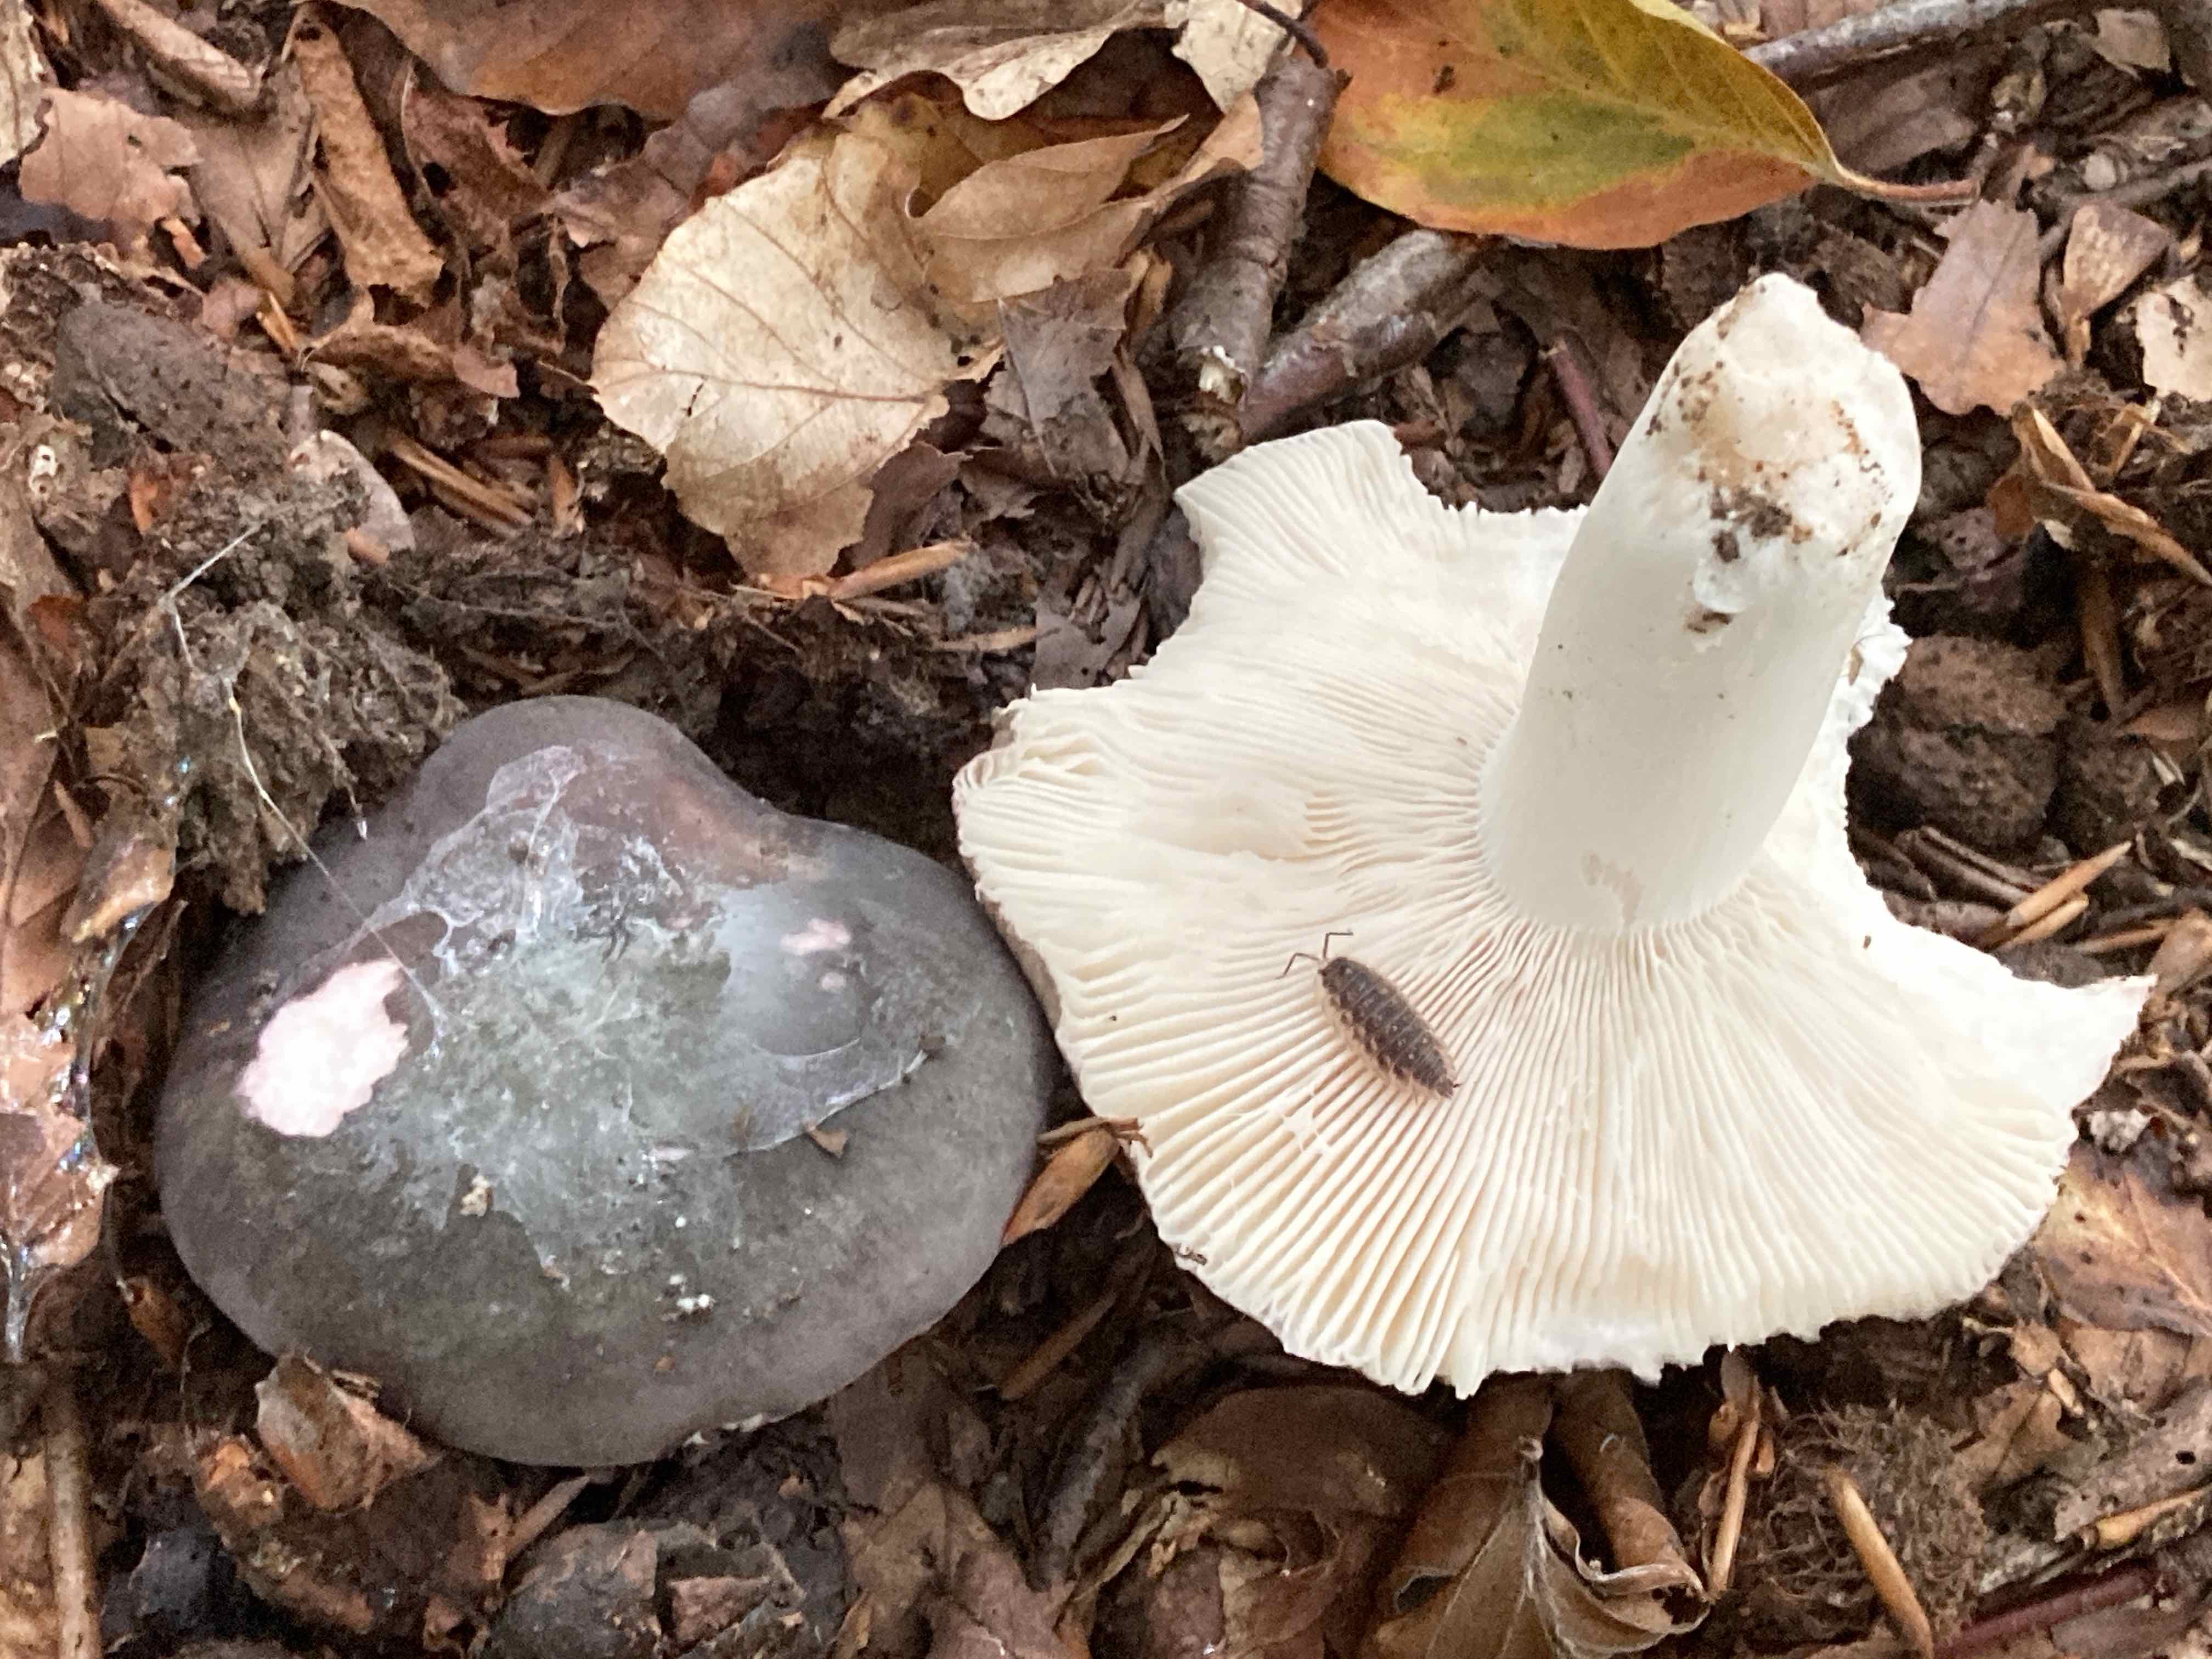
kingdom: Fungi
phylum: Basidiomycota
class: Agaricomycetes
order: Russulales
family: Russulaceae
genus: Russula
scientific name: Russula cyanoxantha
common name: broget skørhat
